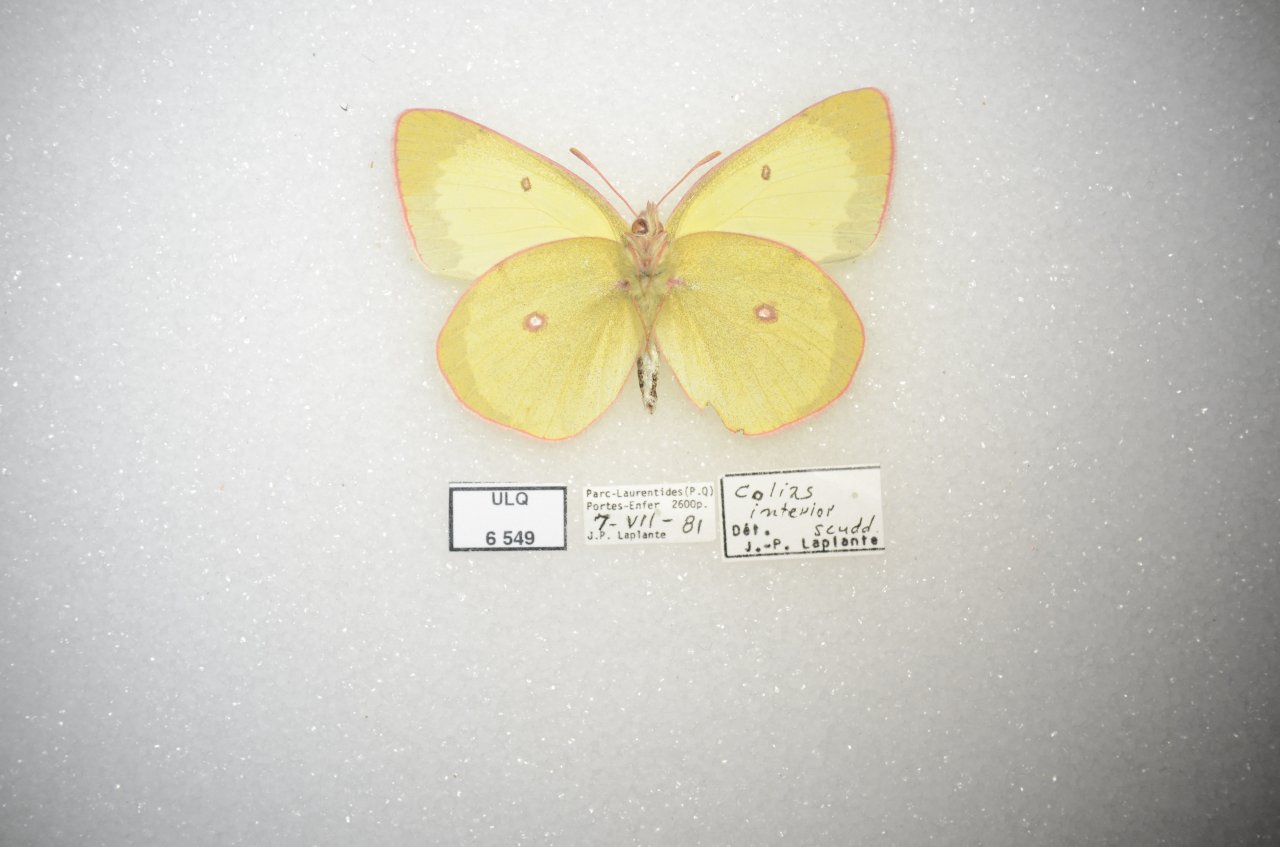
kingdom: Animalia
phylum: Arthropoda
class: Insecta
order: Lepidoptera
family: Pieridae
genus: Colias
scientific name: Colias interior
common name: Pink-edged Sulphur
